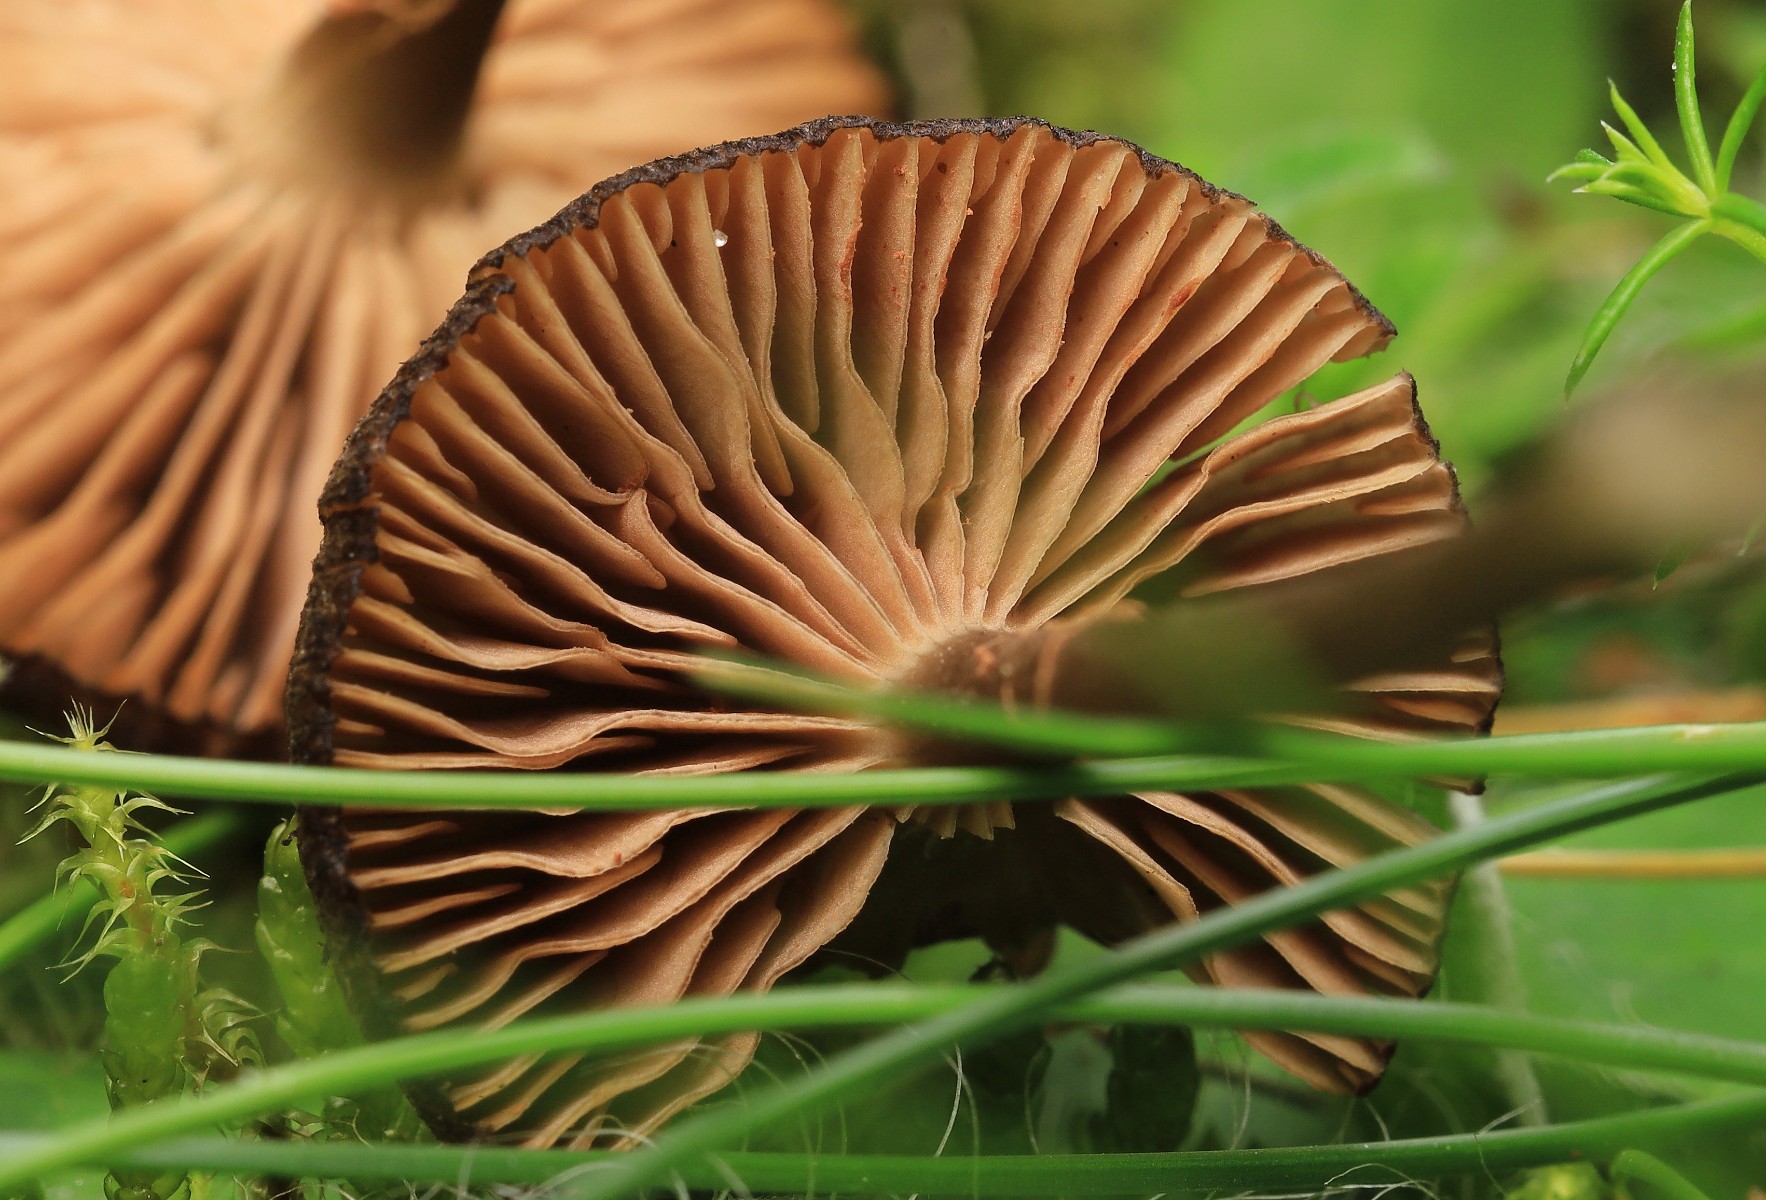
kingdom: Fungi
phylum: Basidiomycota
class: Agaricomycetes
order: Agaricales
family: Entolomataceae
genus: Entoloma
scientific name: Entoloma
